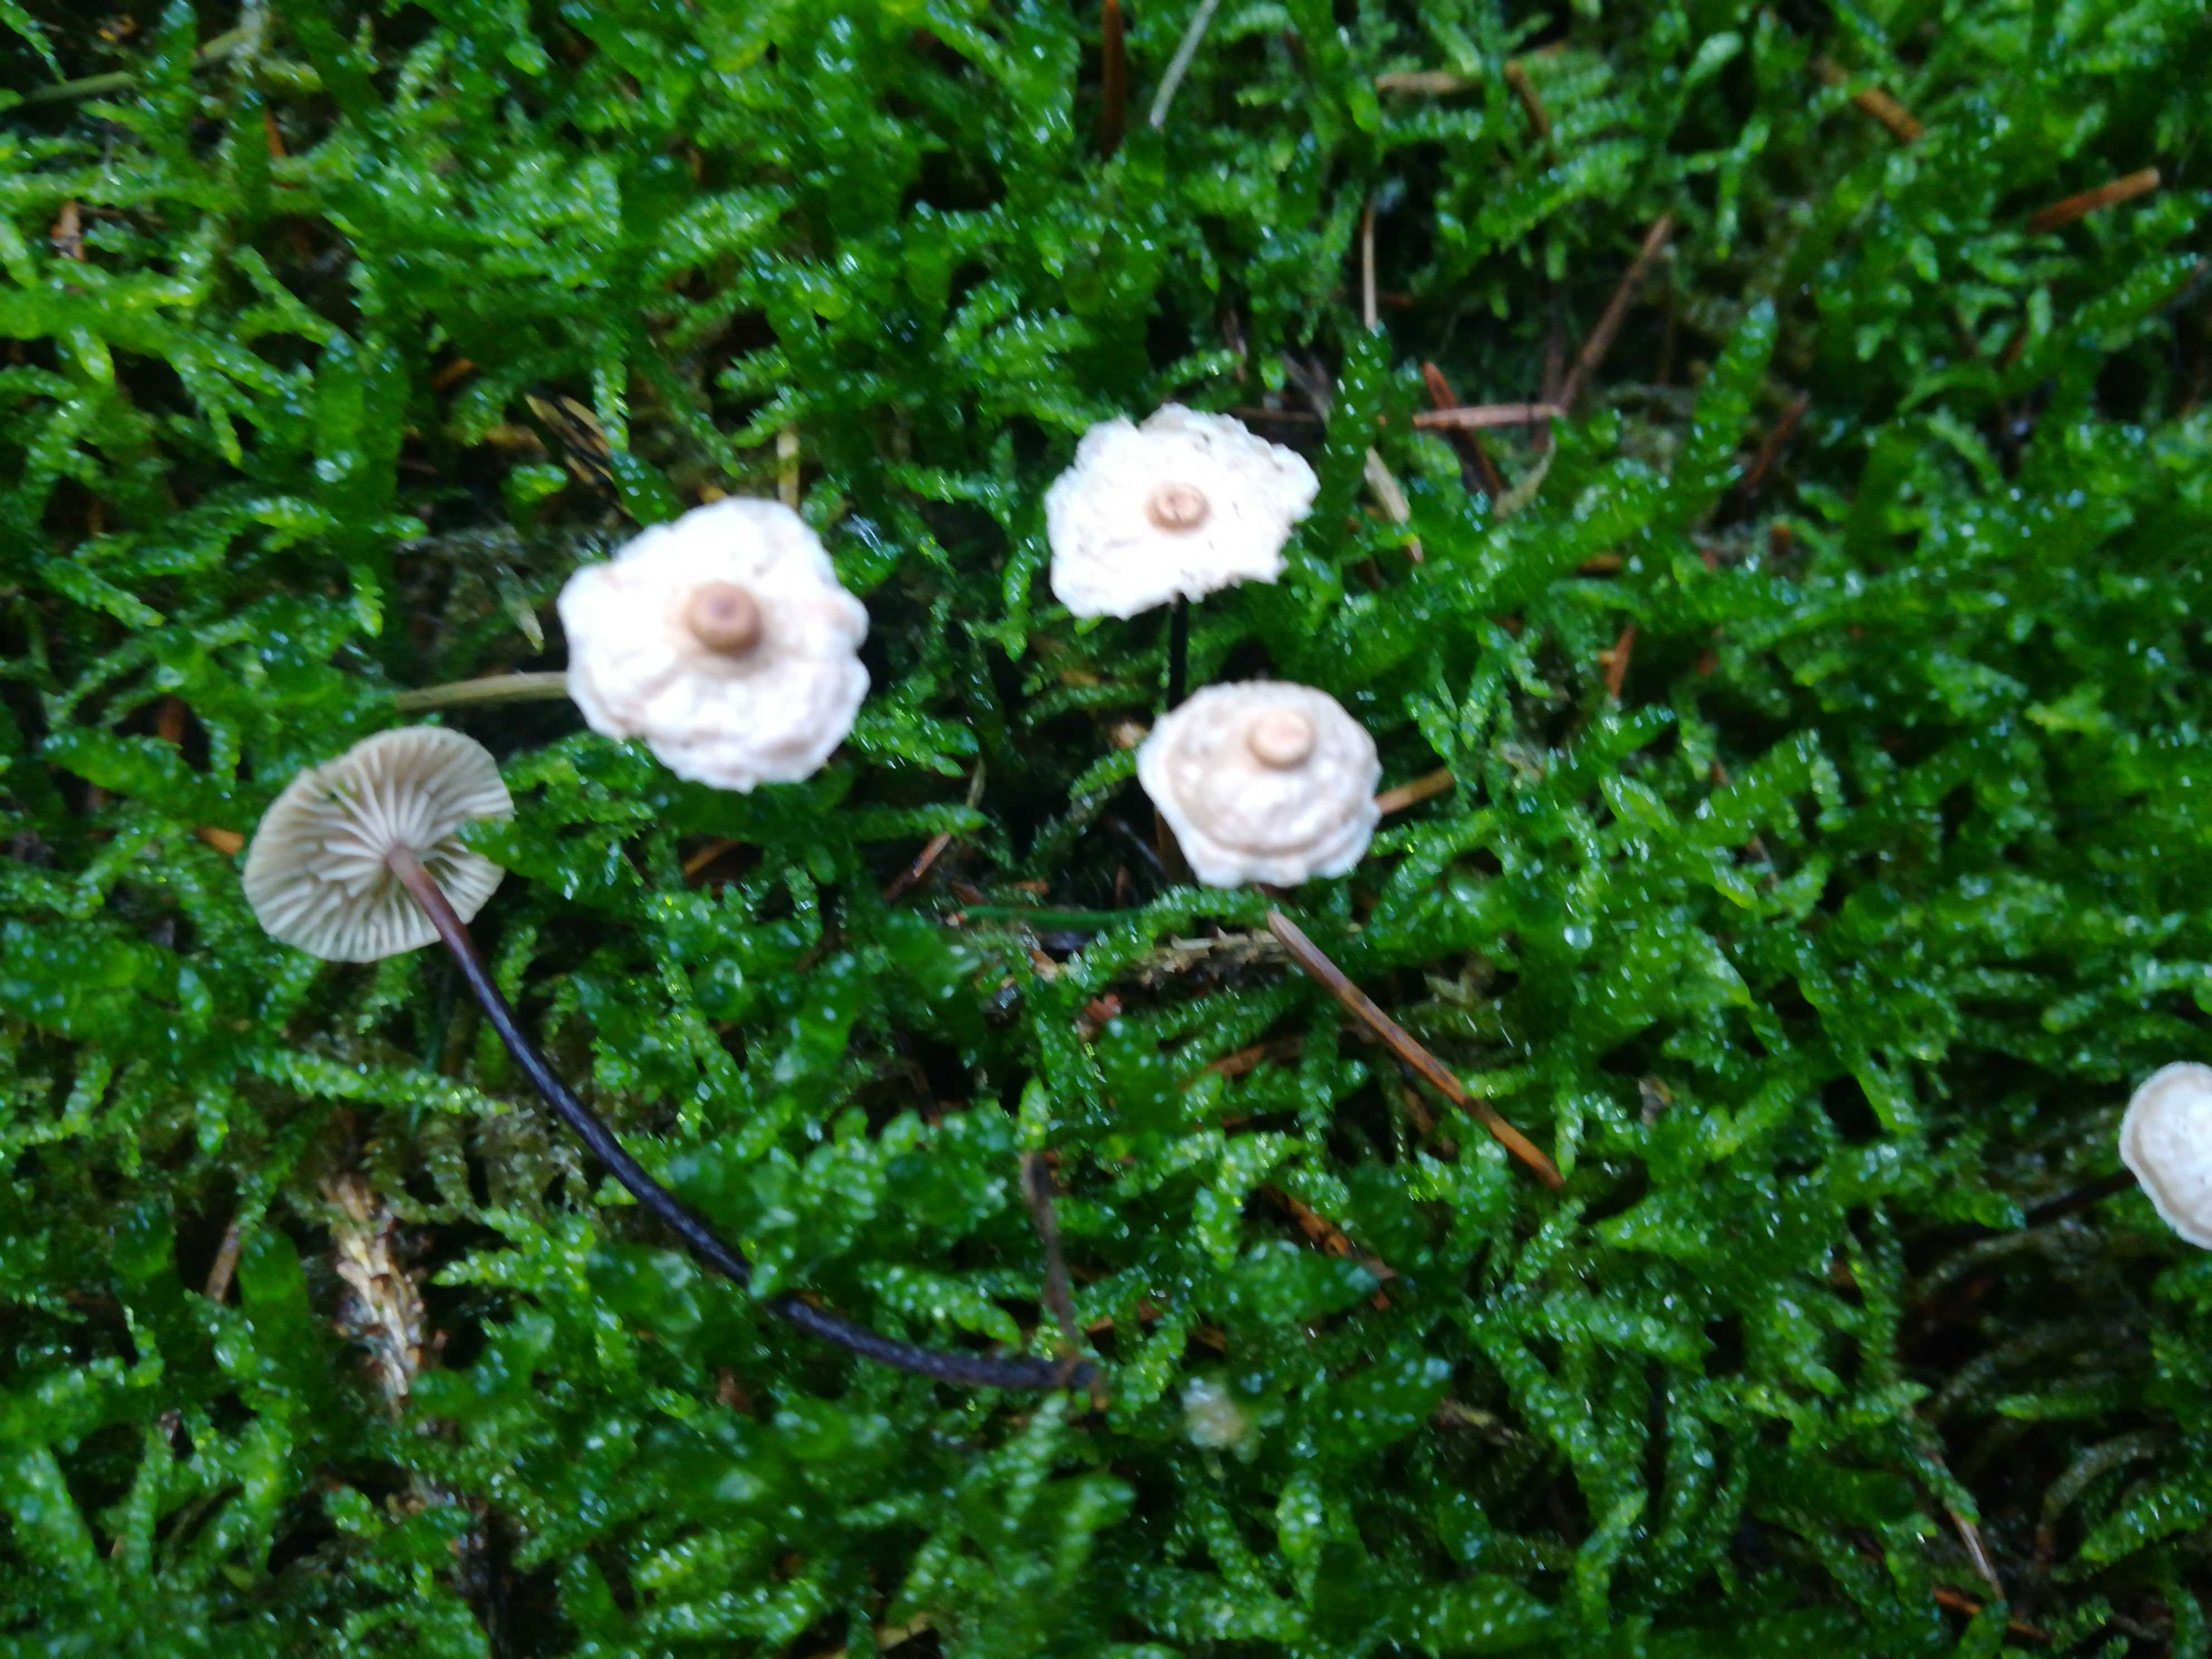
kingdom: Fungi
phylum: Basidiomycota
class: Agaricomycetes
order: Agaricales
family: Omphalotaceae
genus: Paragymnopus
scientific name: Paragymnopus perforans
